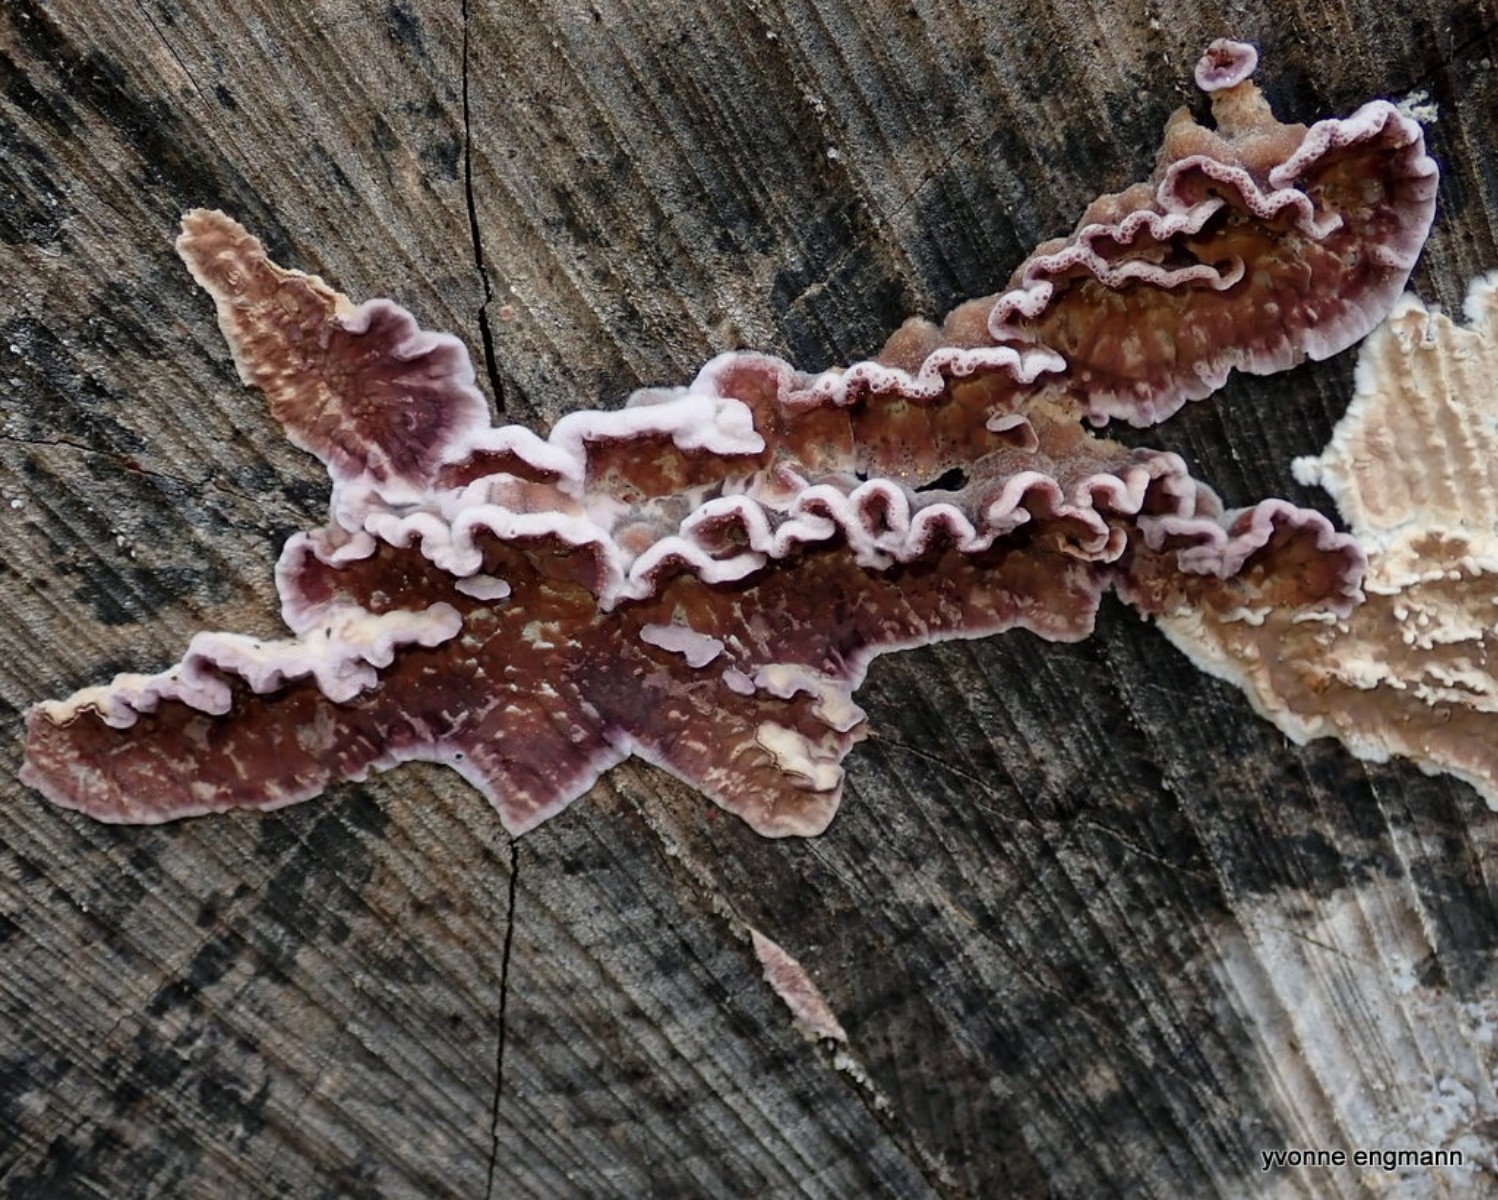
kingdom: Fungi
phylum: Basidiomycota
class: Agaricomycetes
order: Agaricales
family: Cyphellaceae
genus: Chondrostereum
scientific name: Chondrostereum purpureum
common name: purpurlædersvamp
